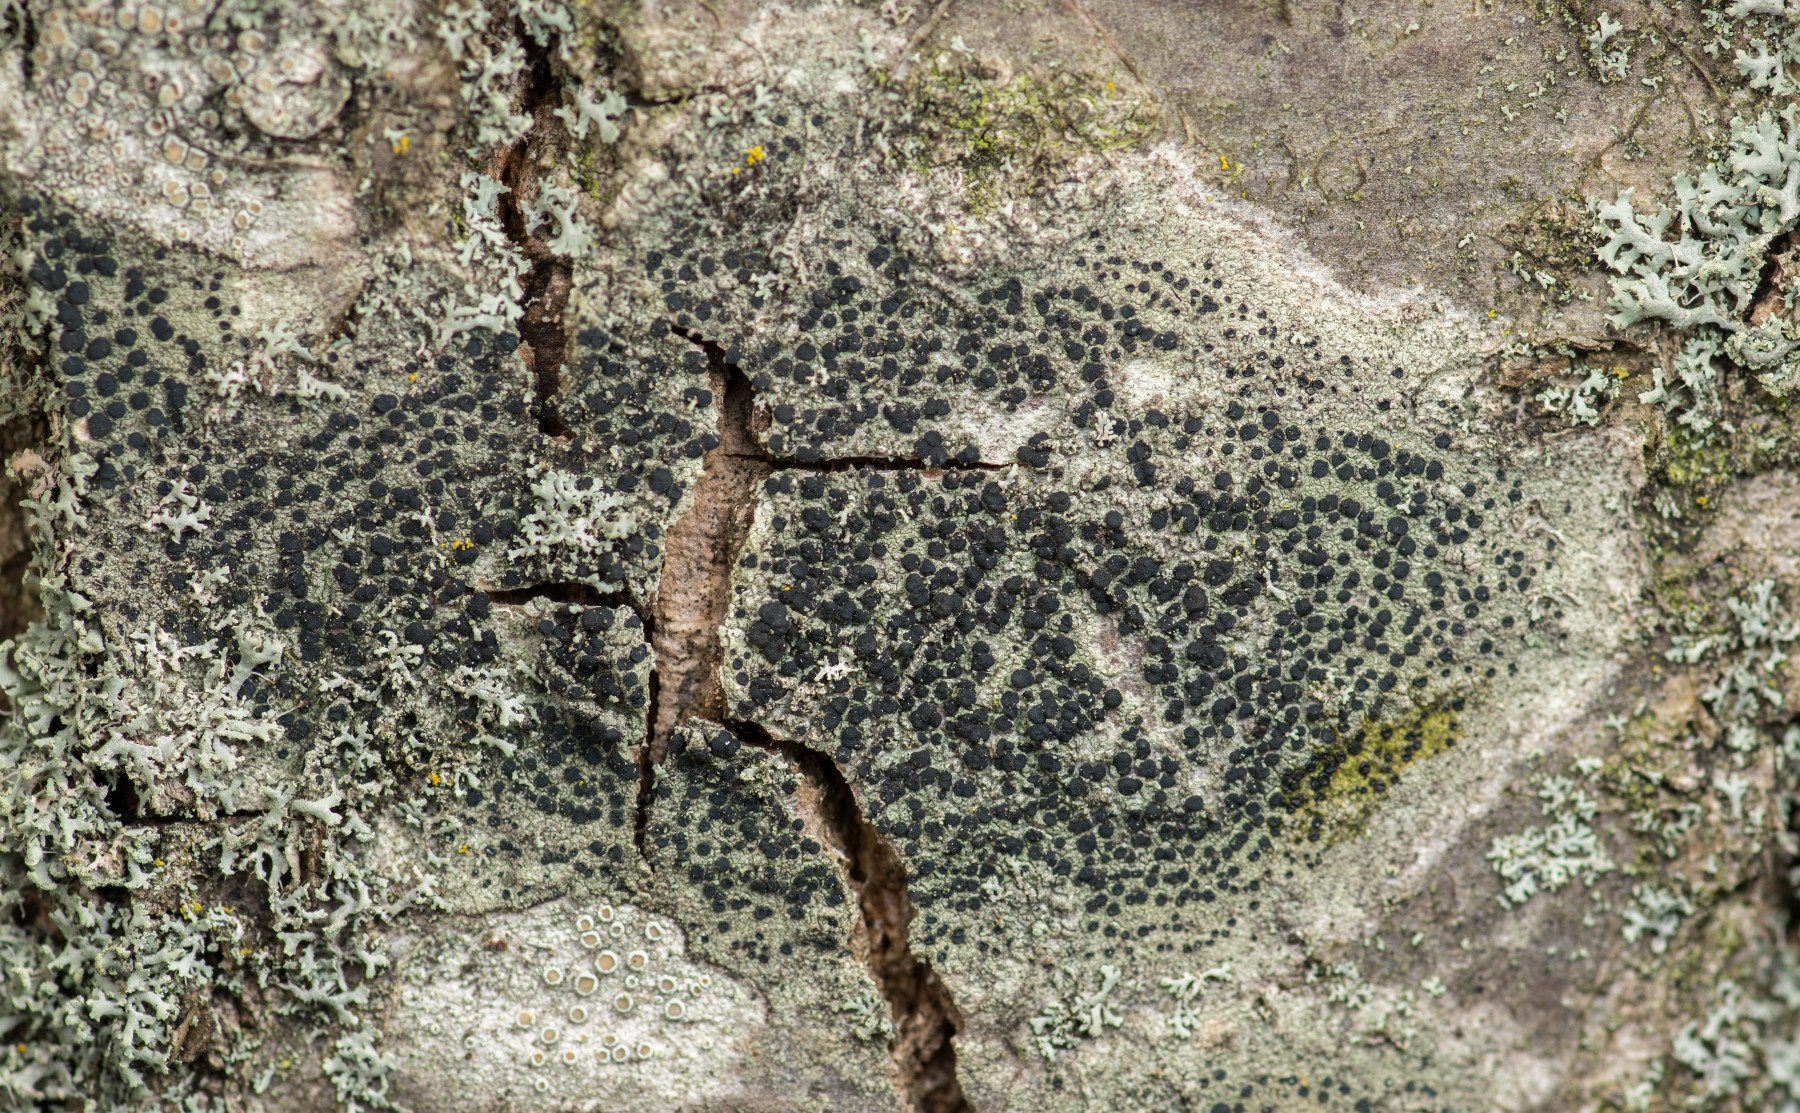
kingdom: Fungi
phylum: Ascomycota
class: Lecanoromycetes
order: Lecanorales
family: Lecanoraceae
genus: Lecidella
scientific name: Lecidella elaeochroma
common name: grågrøn skivelav
